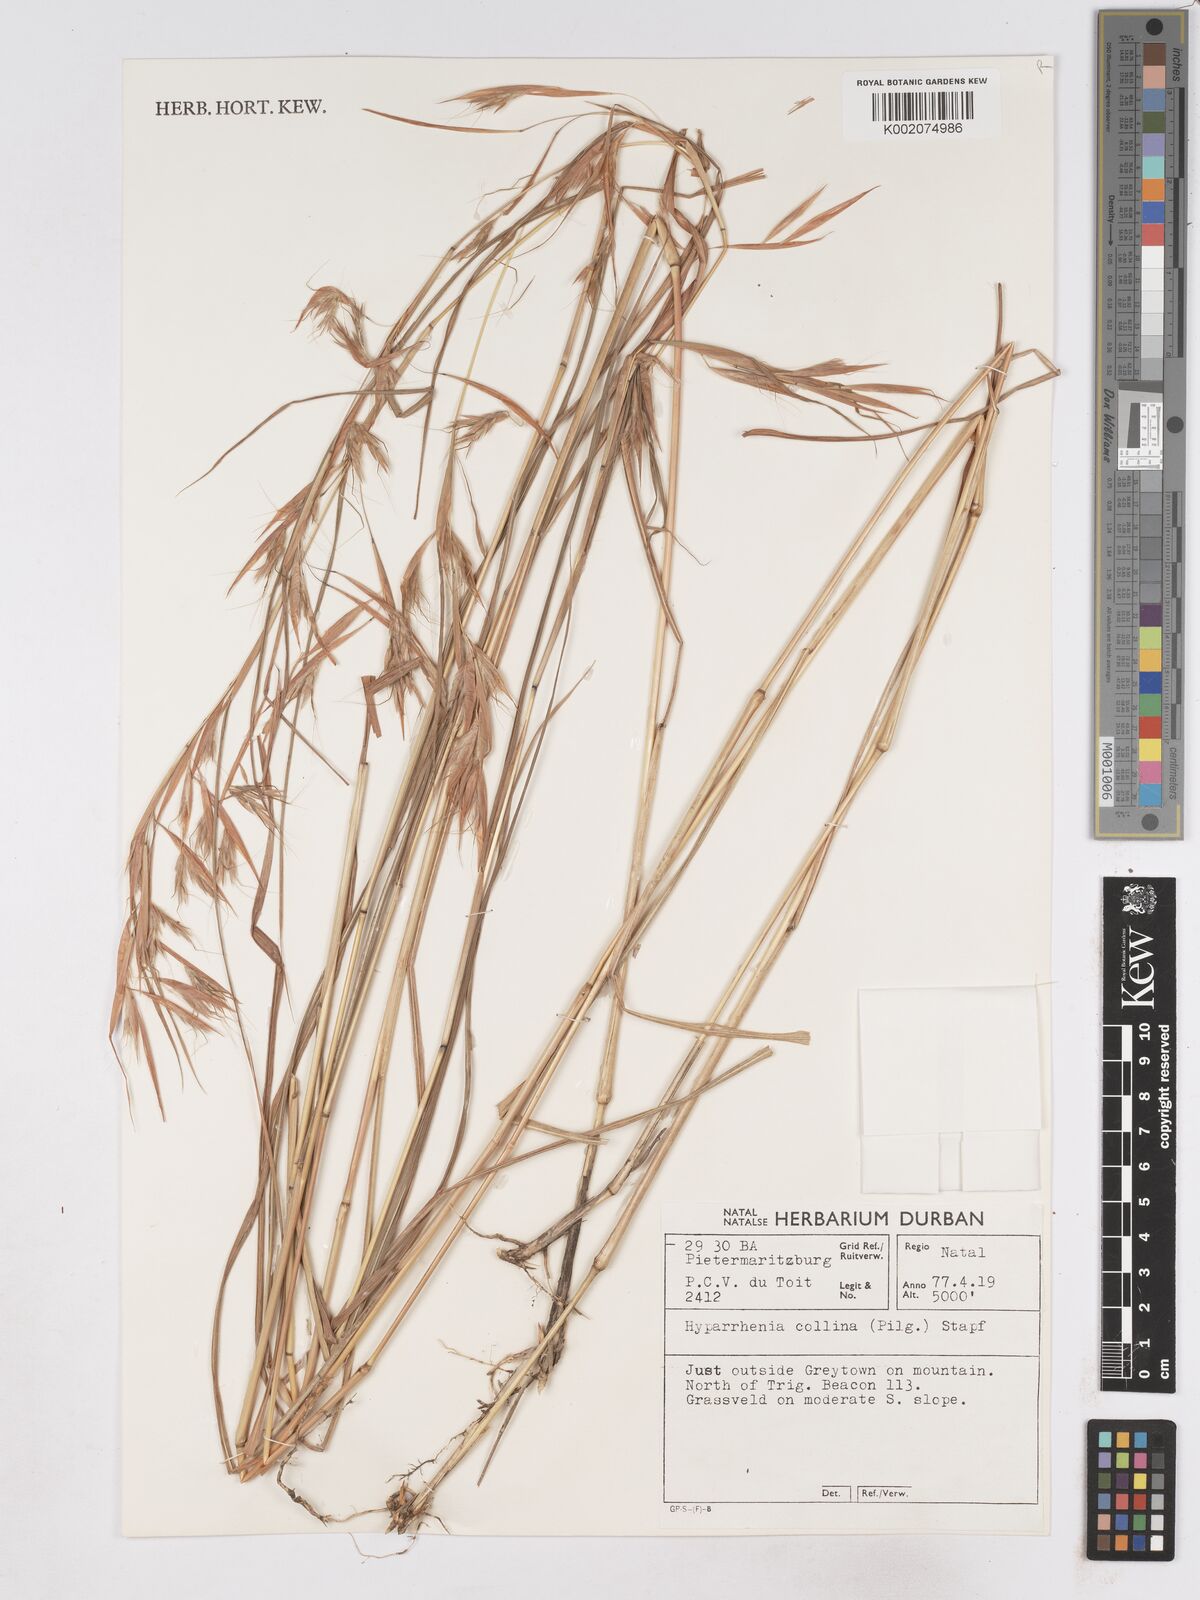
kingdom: Plantae
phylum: Tracheophyta
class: Liliopsida
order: Poales
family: Poaceae
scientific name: Poaceae
